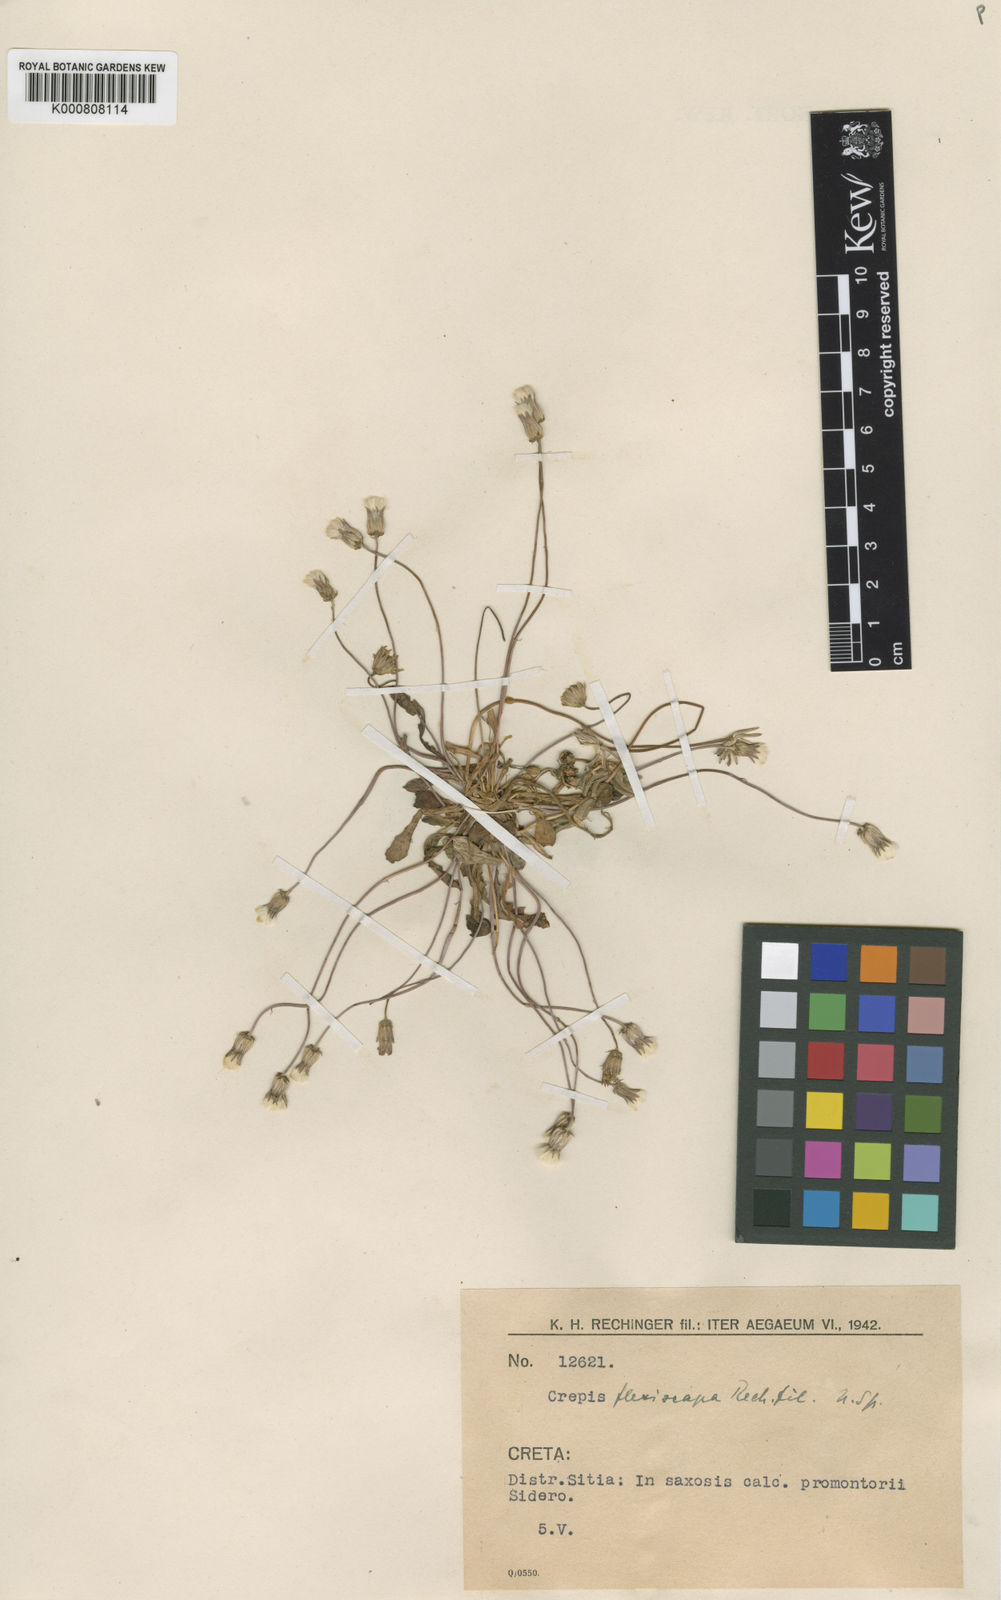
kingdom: Plantae
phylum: Tracheophyta
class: Magnoliopsida
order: Asterales
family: Asteraceae
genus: Crepis
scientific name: Crepis tybakiensis
